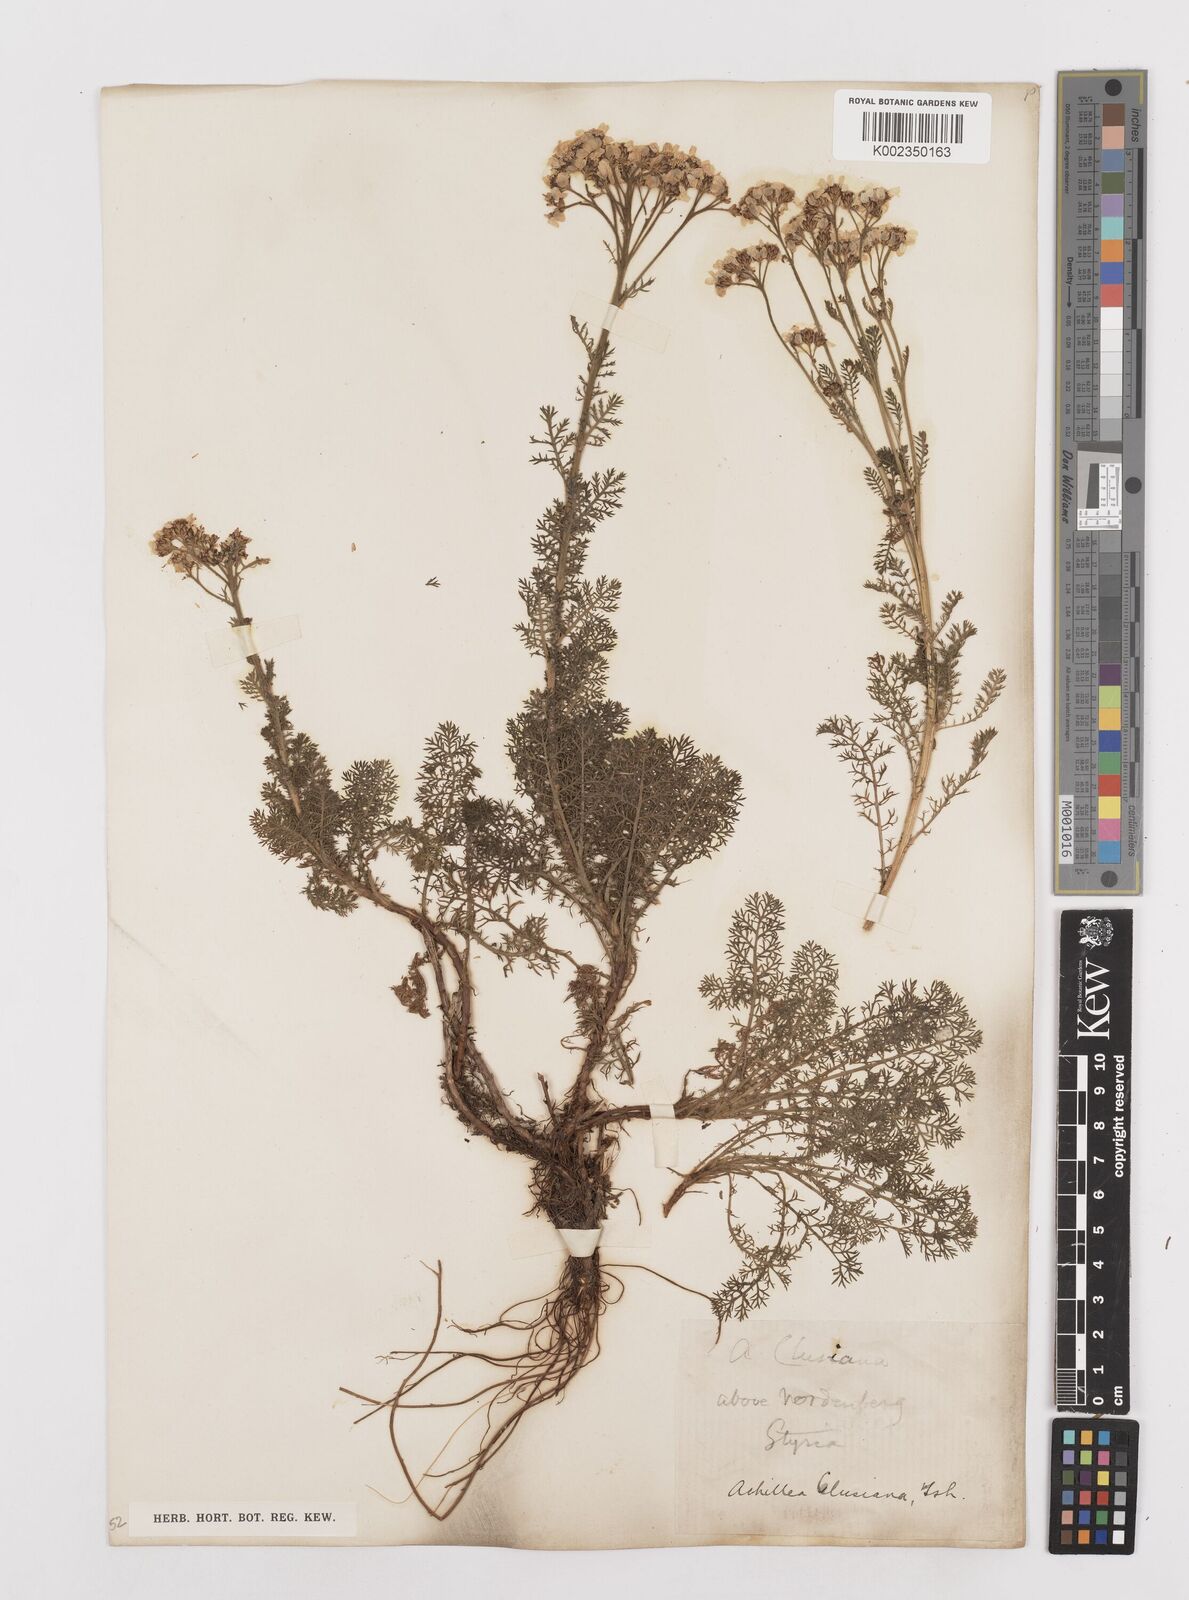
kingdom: Plantae
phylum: Tracheophyta
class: Magnoliopsida
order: Asterales
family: Asteraceae
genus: Achillea
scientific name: Achillea clusiana
